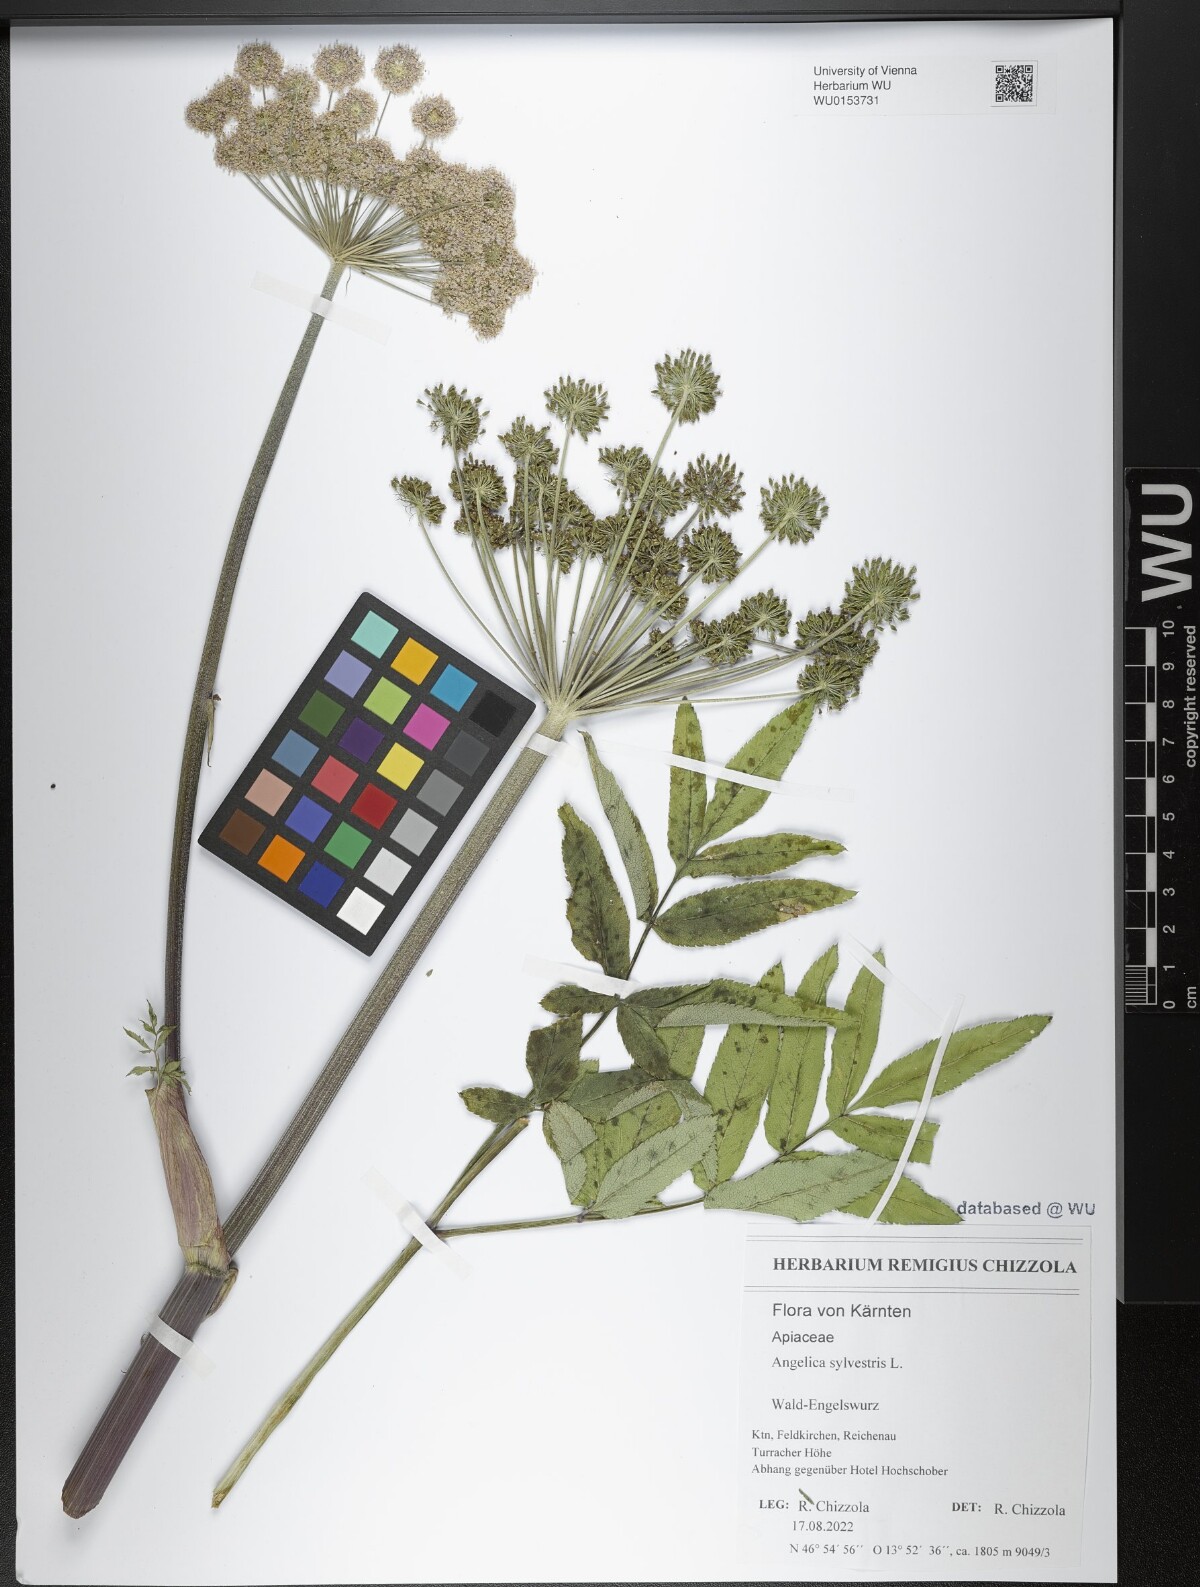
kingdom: Plantae
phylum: Tracheophyta
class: Magnoliopsida
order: Apiales
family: Apiaceae
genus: Angelica
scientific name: Angelica sylvestris
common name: Wild angelica
